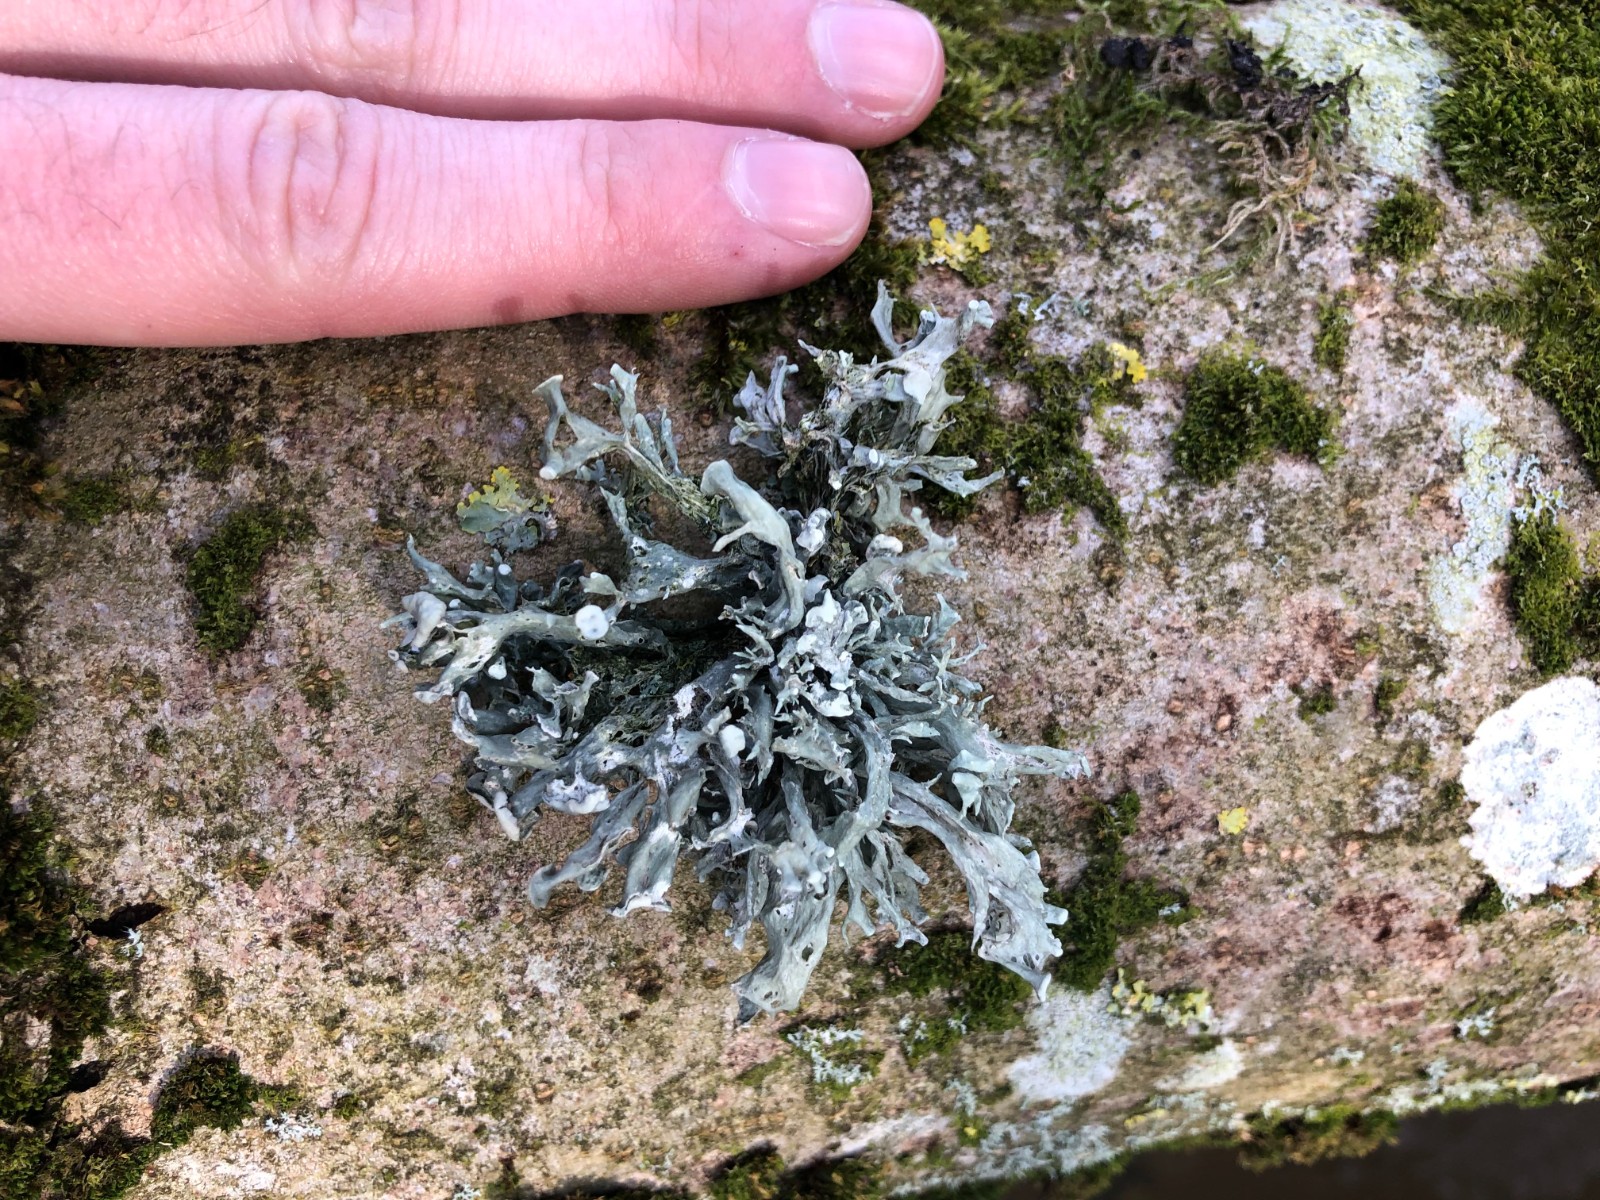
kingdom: Fungi
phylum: Ascomycota
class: Lecanoromycetes
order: Lecanorales
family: Ramalinaceae
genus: Ramalina
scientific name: Ramalina fastigiata
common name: tue-grenlav
